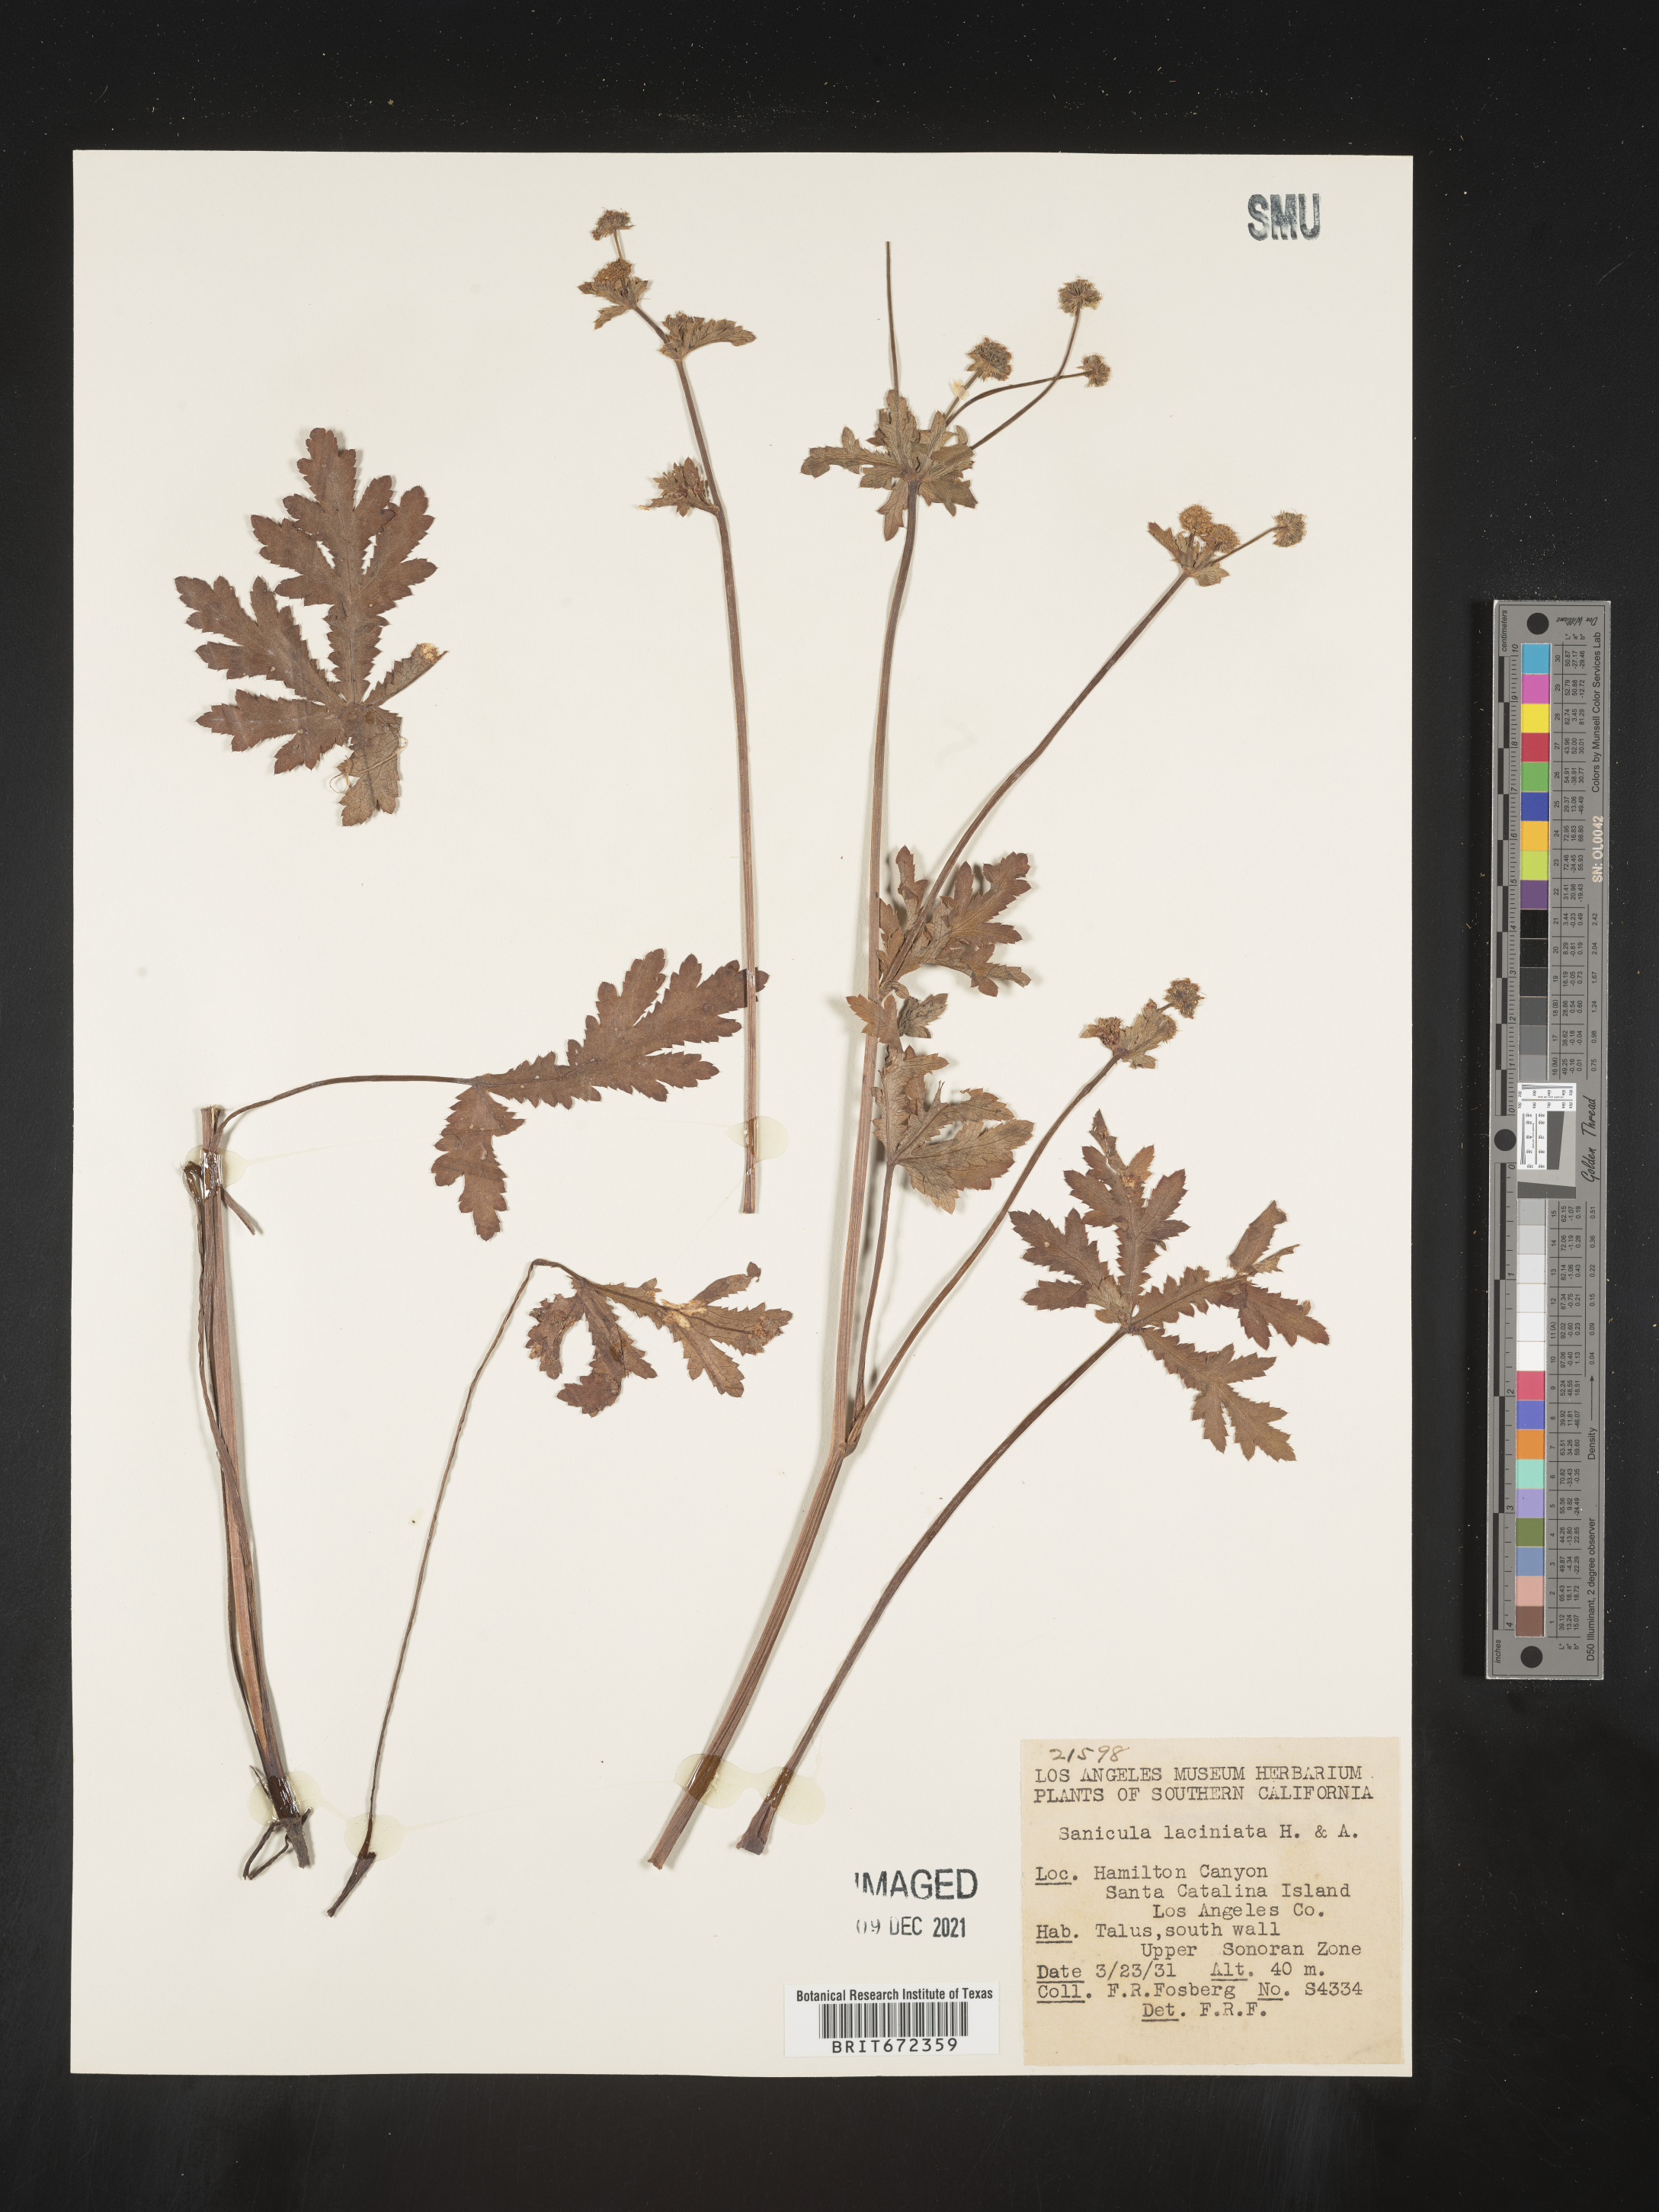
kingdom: Plantae
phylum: Tracheophyta
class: Magnoliopsida
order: Apiales
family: Apiaceae
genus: Sanicula
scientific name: Sanicula
